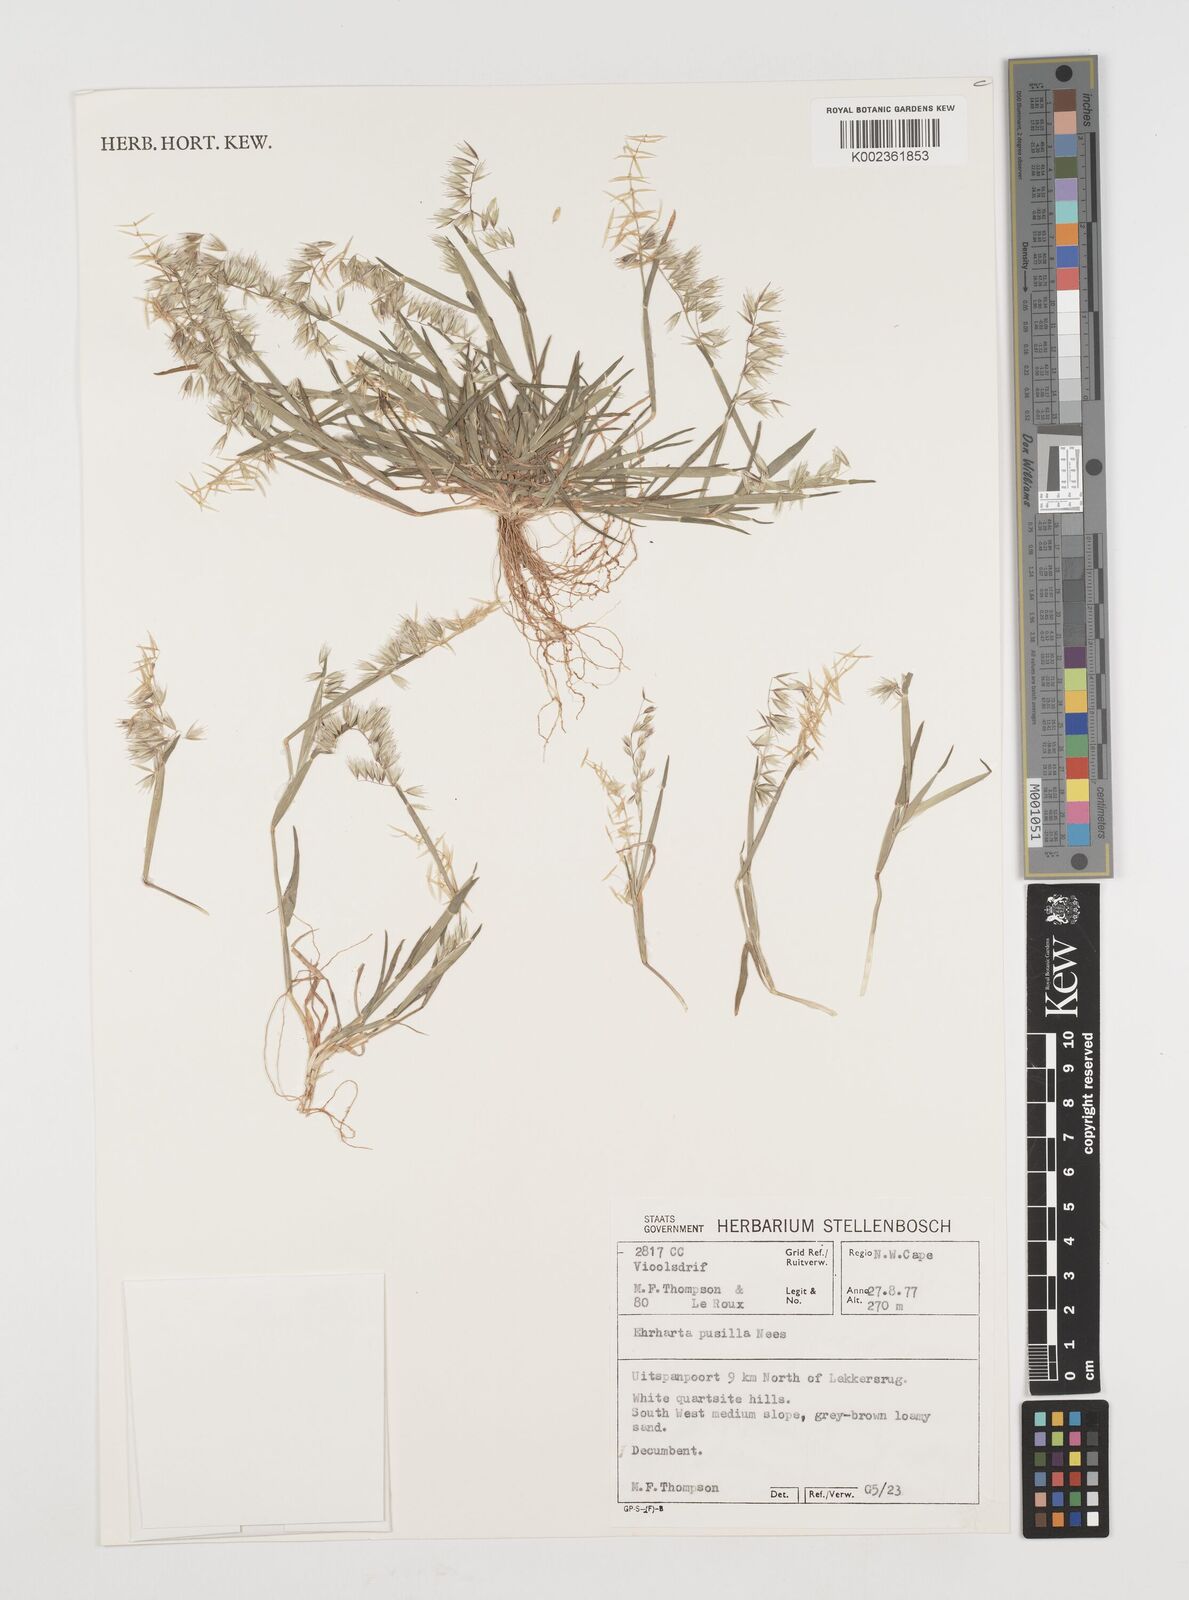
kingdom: Plantae
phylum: Tracheophyta
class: Liliopsida
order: Poales
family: Poaceae
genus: Ehrharta
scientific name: Ehrharta pusilla
